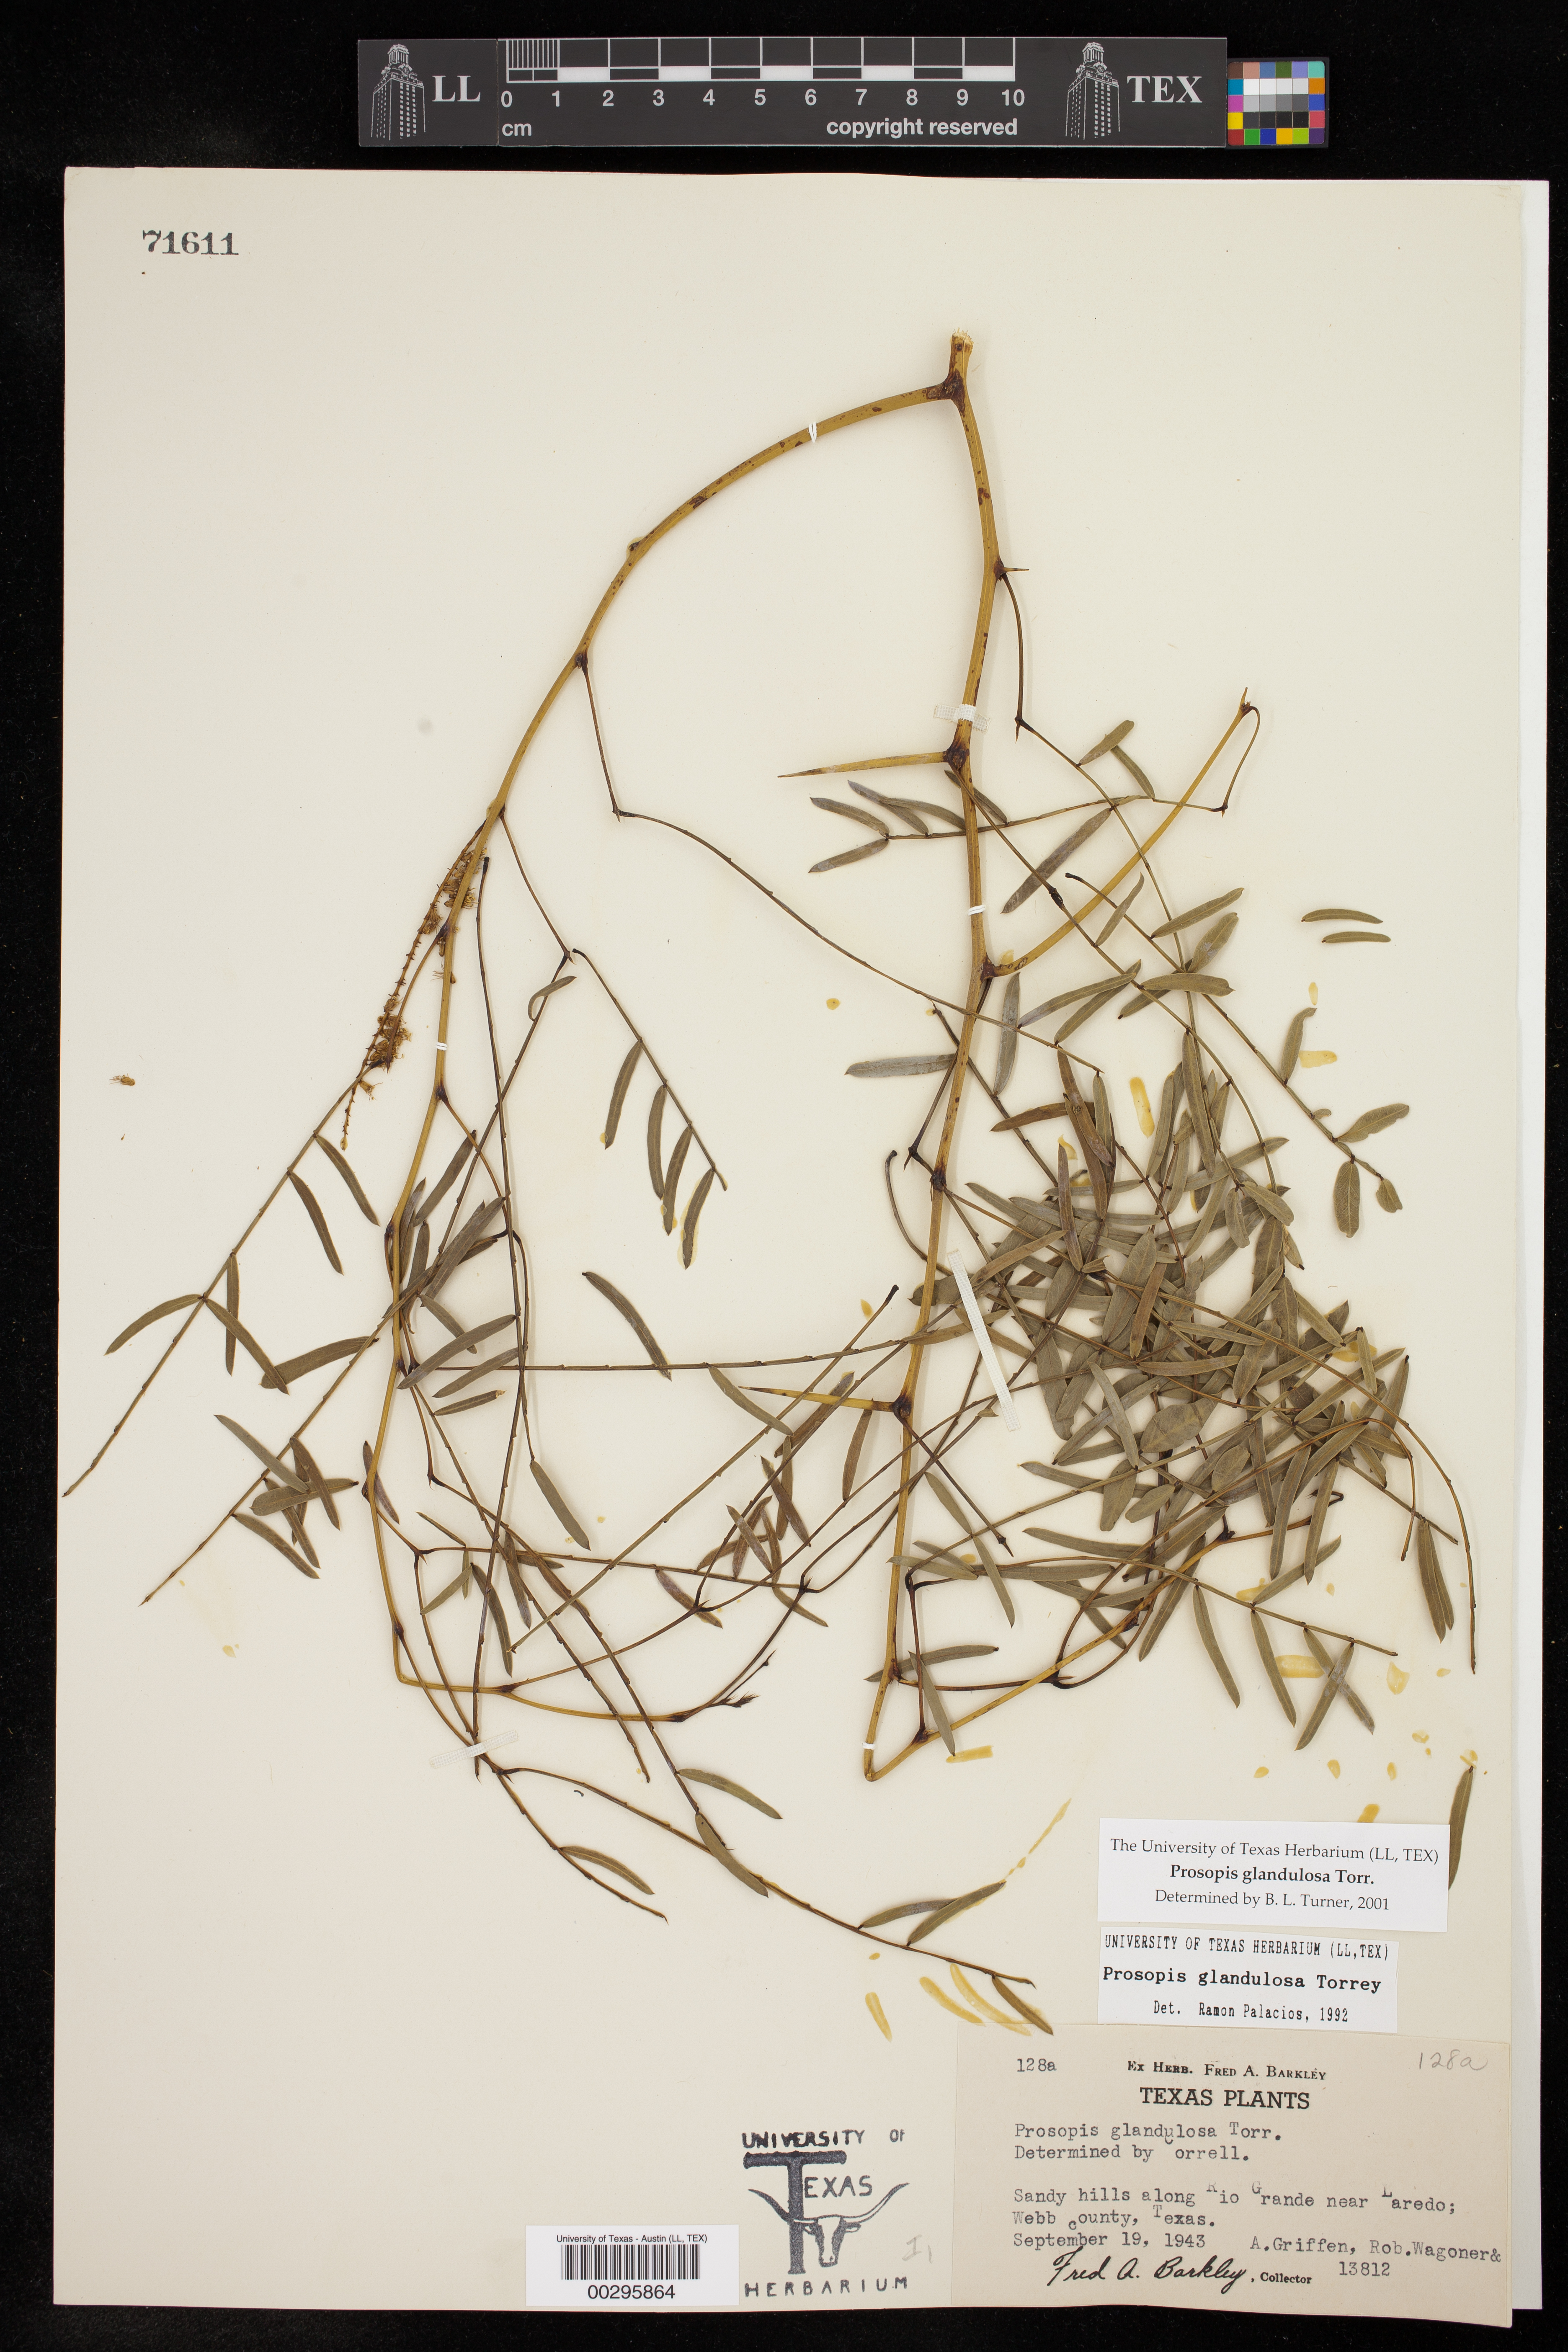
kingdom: Plantae
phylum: Tracheophyta
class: Magnoliopsida
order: Fabales
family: Fabaceae
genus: Prosopis
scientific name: Prosopis glandulosa
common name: Honey mesquite
